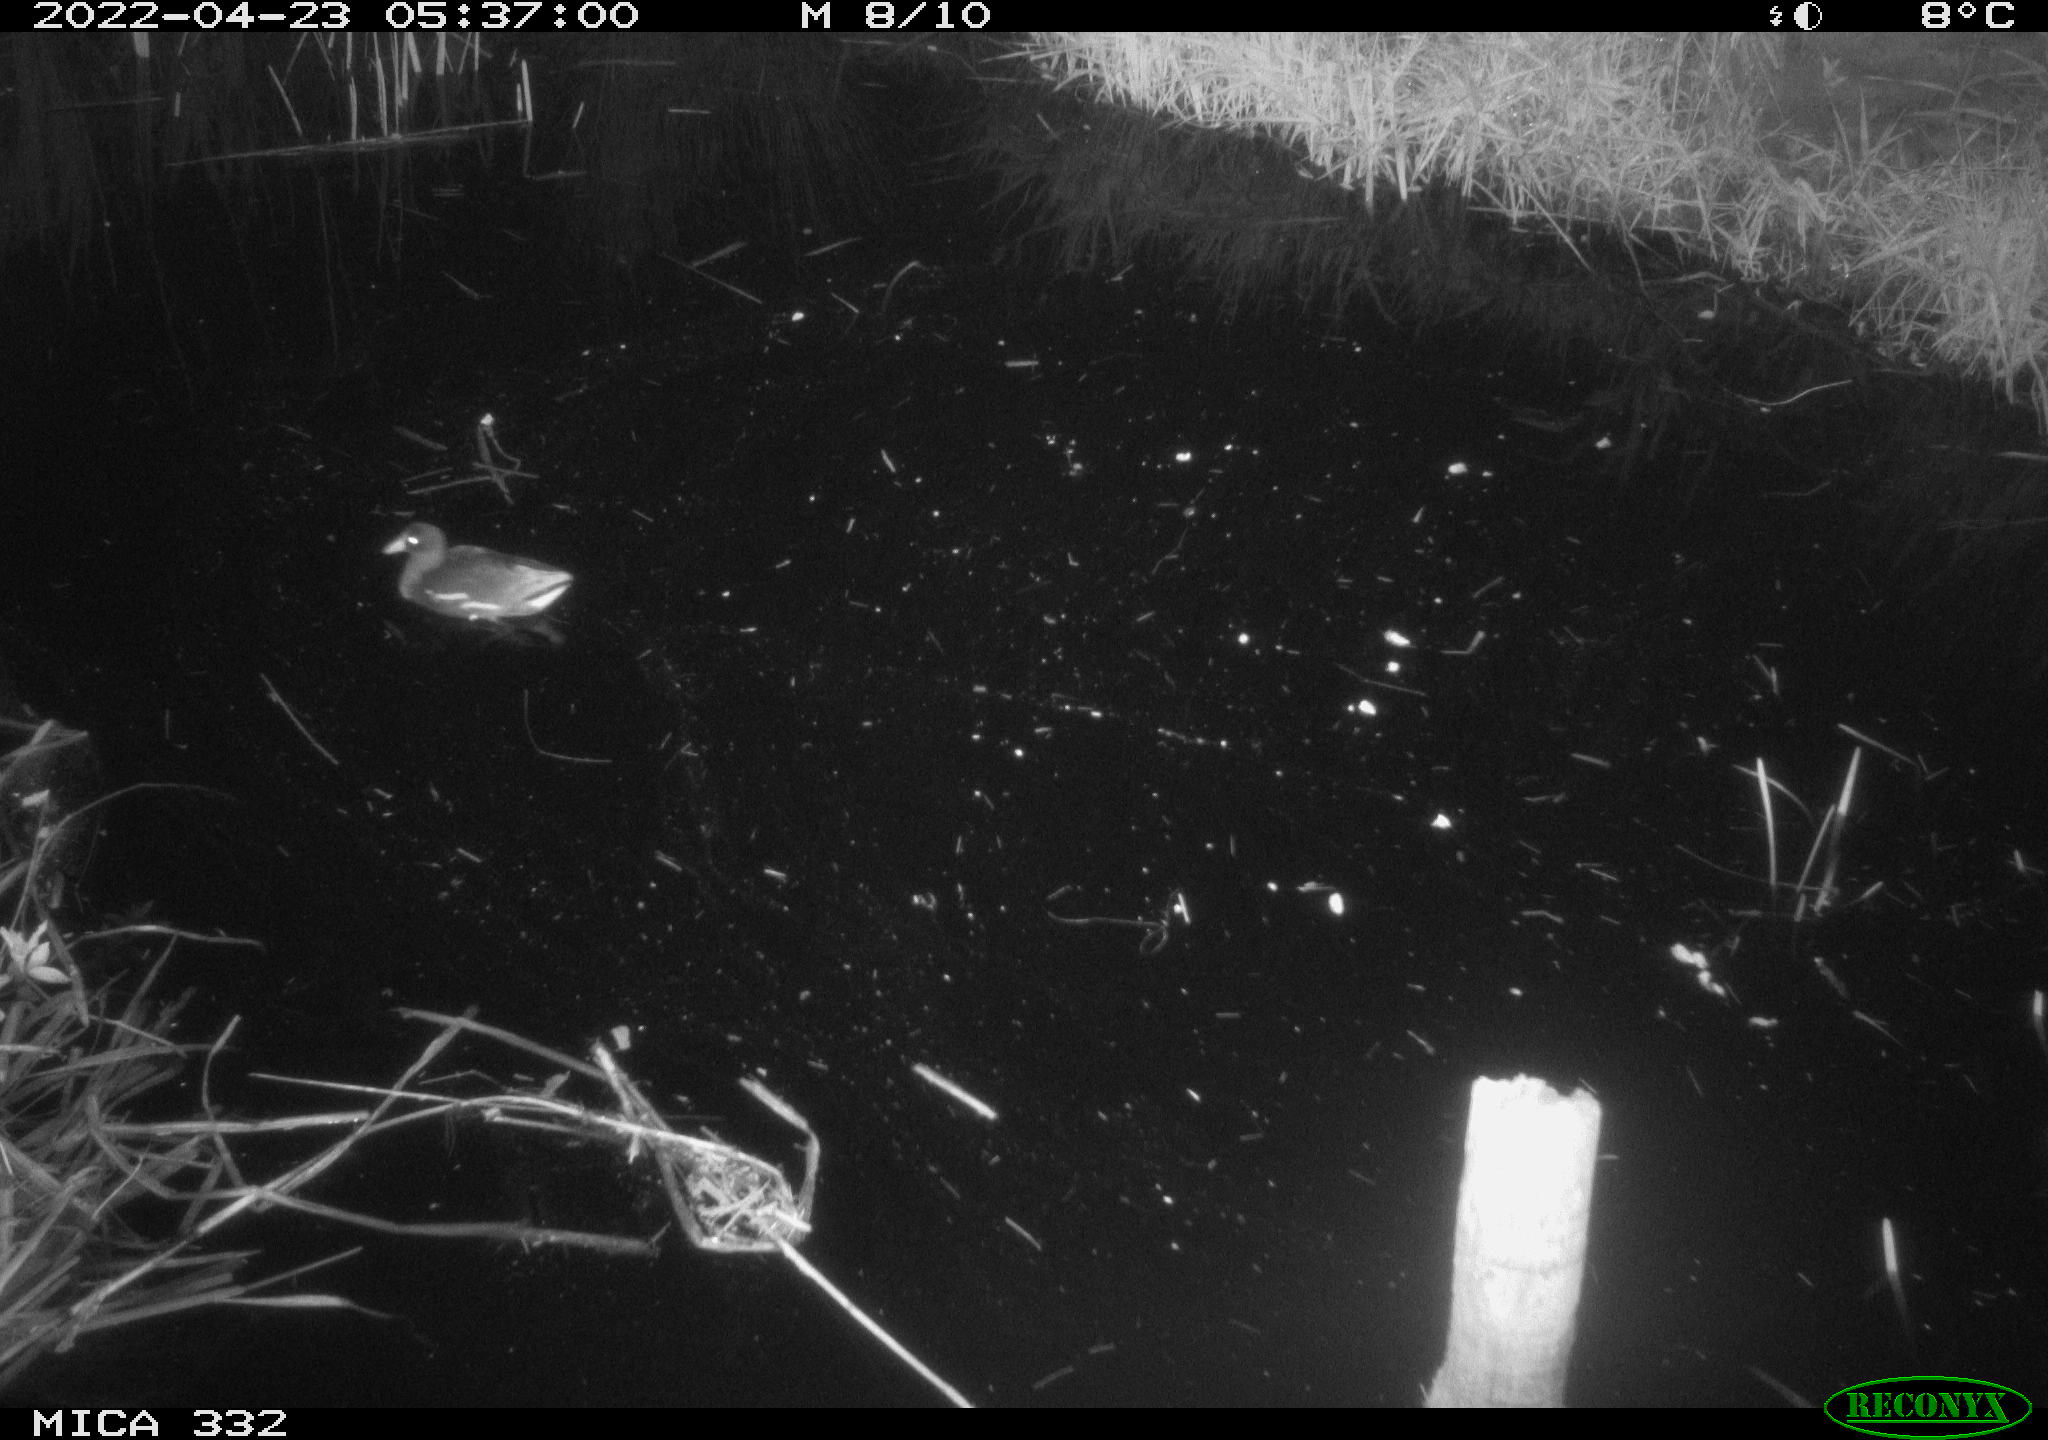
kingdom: Animalia
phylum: Chordata
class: Aves
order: Gruiformes
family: Rallidae
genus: Gallinula
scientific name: Gallinula chloropus
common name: Common moorhen
